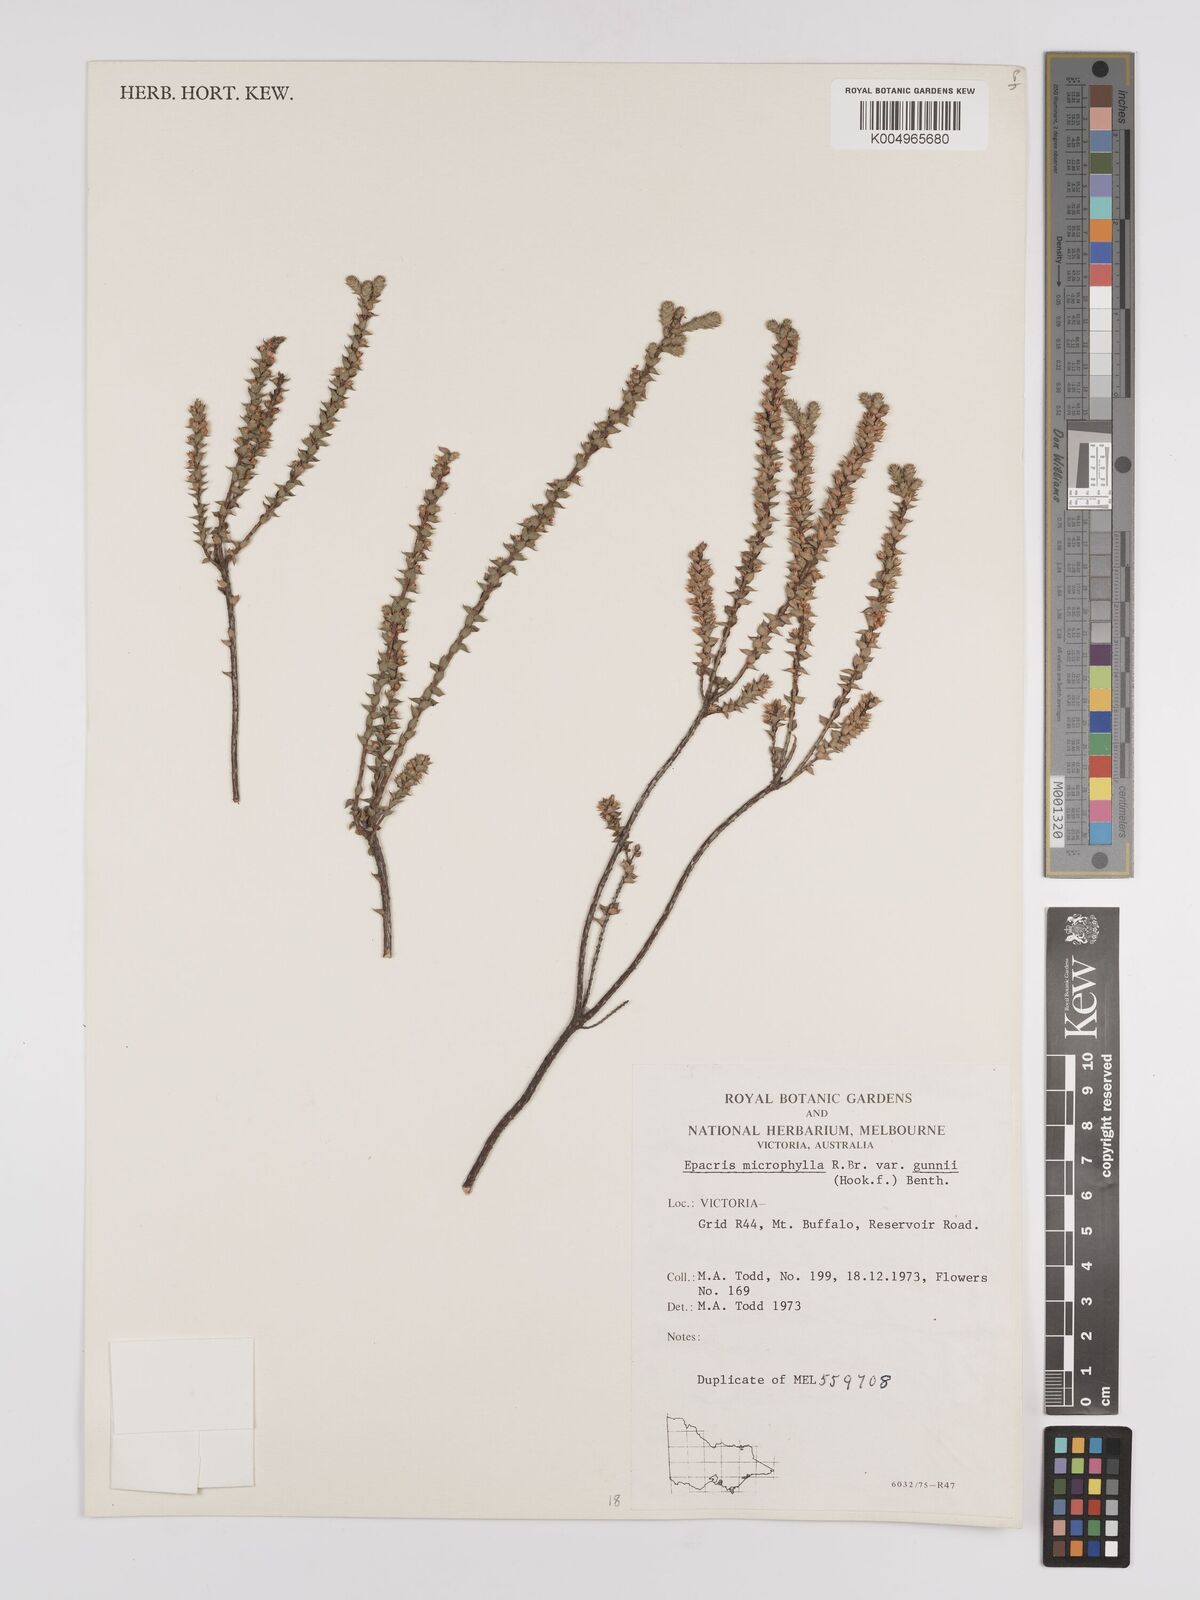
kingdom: Plantae
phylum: Tracheophyta
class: Magnoliopsida
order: Ericales
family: Ericaceae
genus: Epacris
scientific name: Epacris
